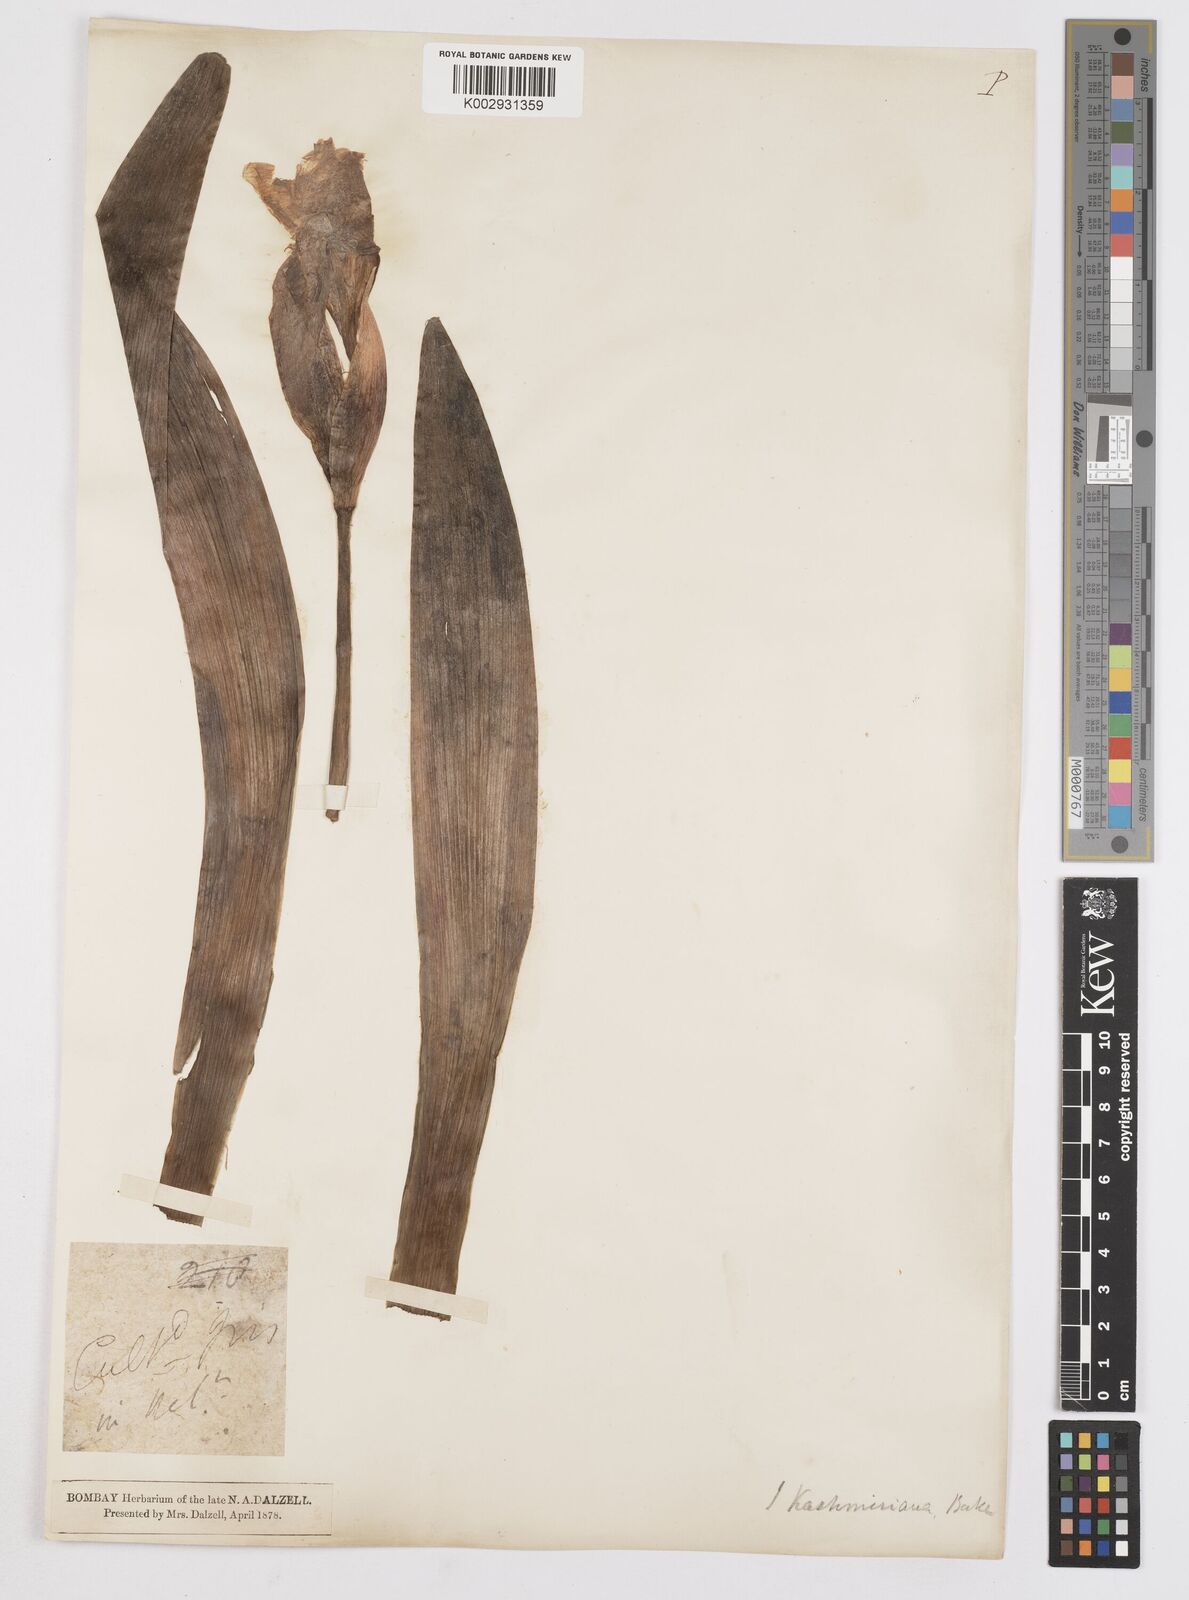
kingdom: Plantae
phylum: Tracheophyta
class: Liliopsida
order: Asparagales
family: Iridaceae
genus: Iris
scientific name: Iris halophila
